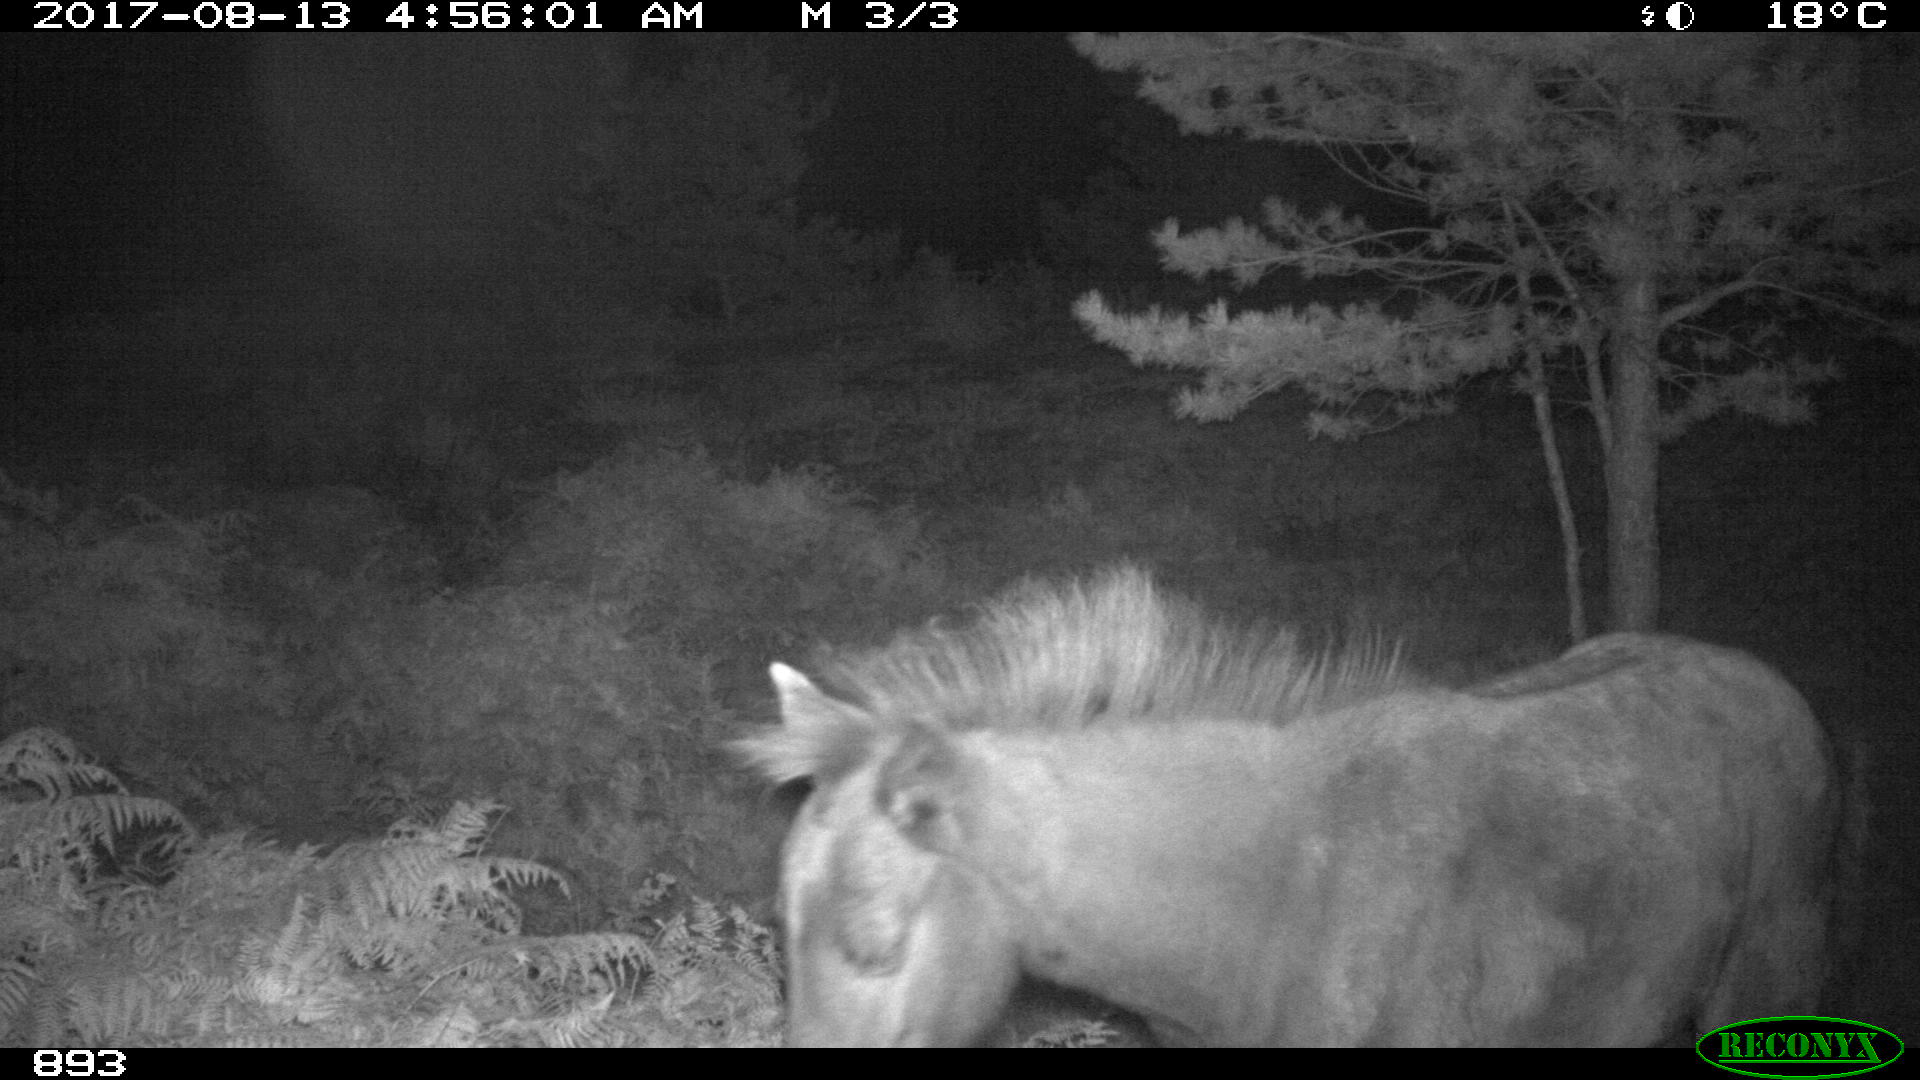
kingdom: Animalia
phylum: Chordata
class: Mammalia
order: Perissodactyla
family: Equidae
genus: Equus
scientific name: Equus caballus
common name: Horse
